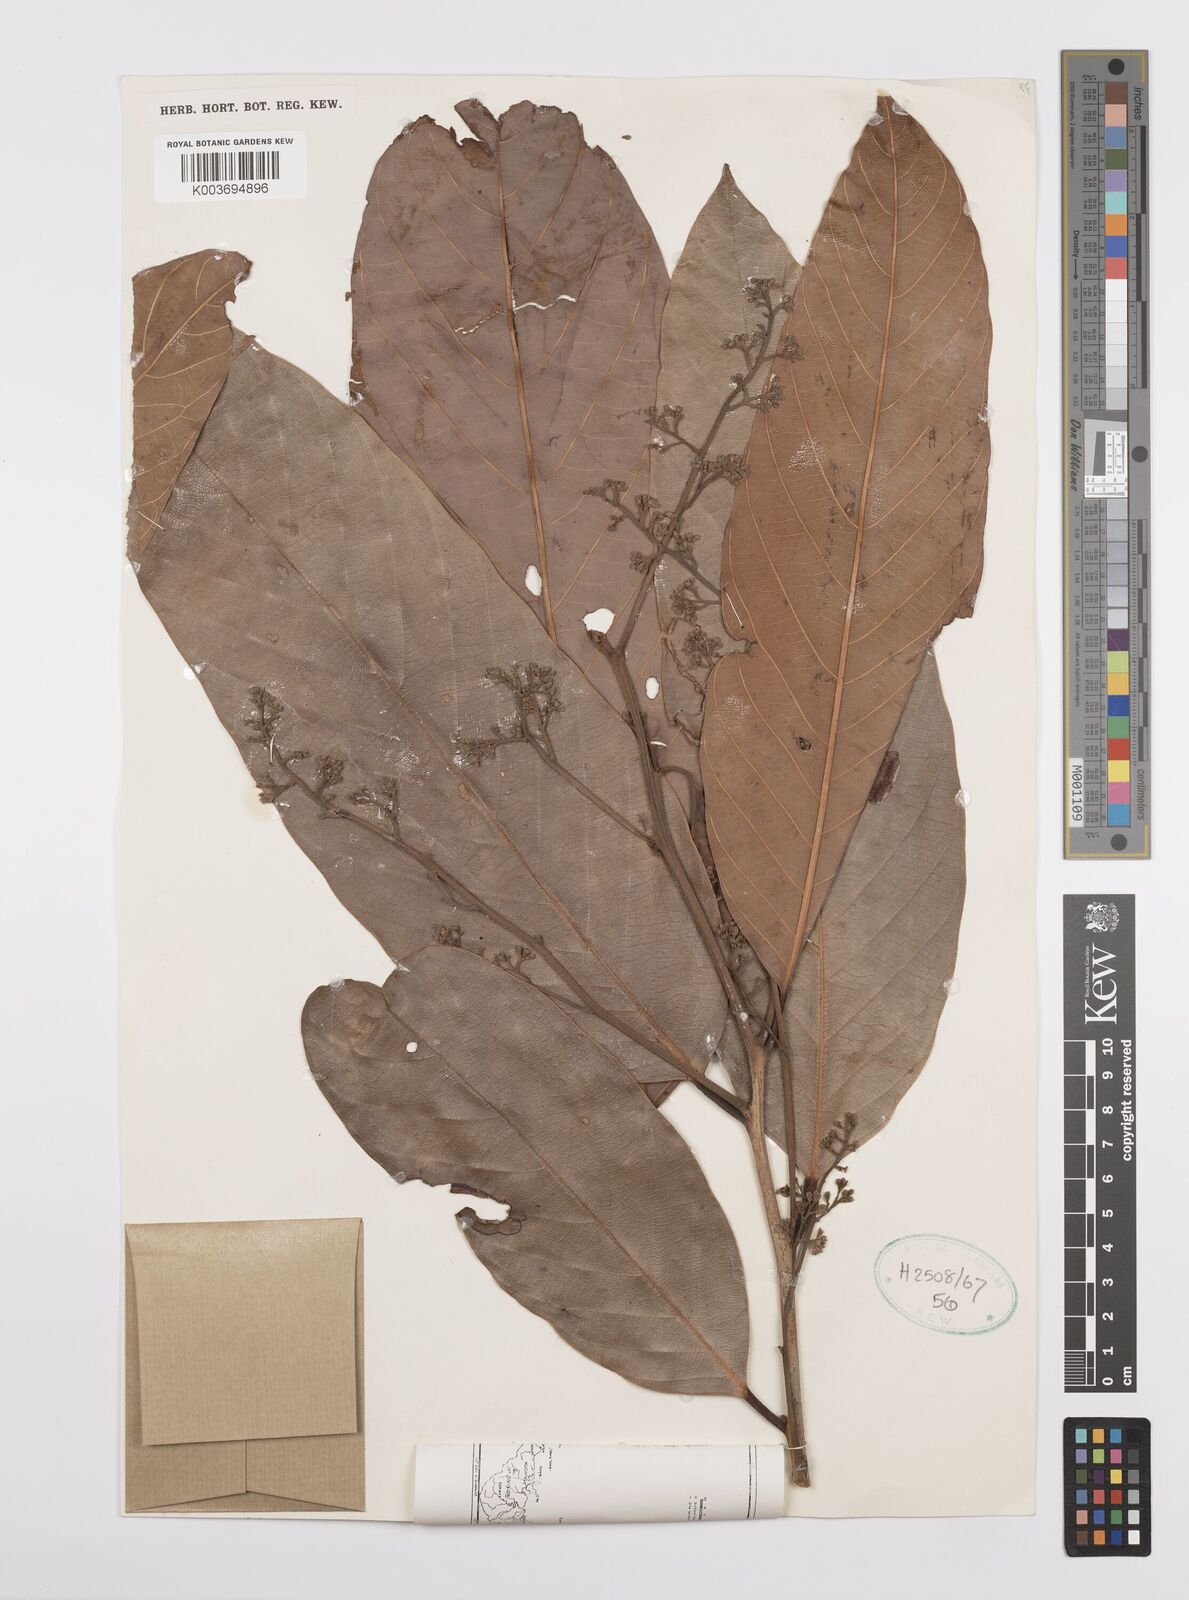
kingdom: Plantae
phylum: Tracheophyta
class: Magnoliopsida
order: Laurales
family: Lauraceae
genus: Cryptocarya
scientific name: Cryptocarya
